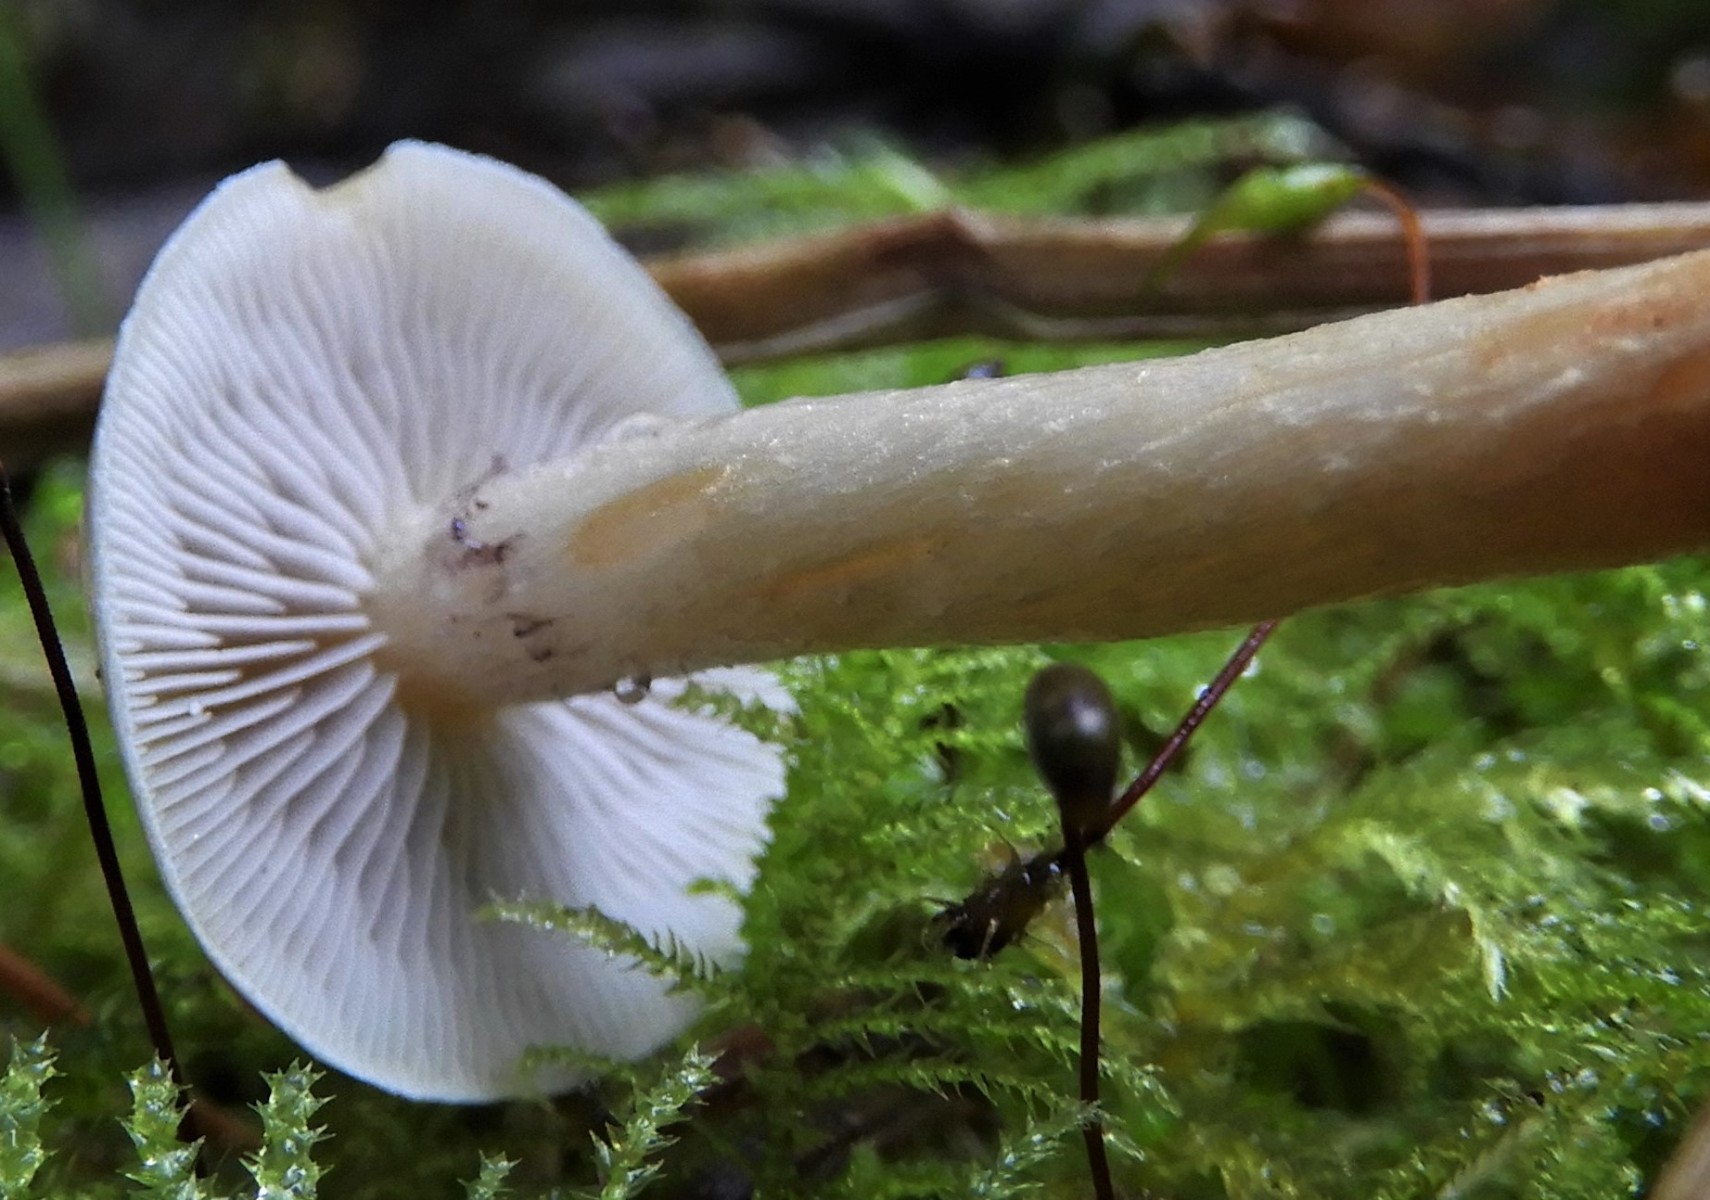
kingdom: Fungi
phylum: Basidiomycota
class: Agaricomycetes
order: Agaricales
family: Strophariaceae
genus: Hypholoma
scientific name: Hypholoma capnoides
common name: gran-svovlhat
